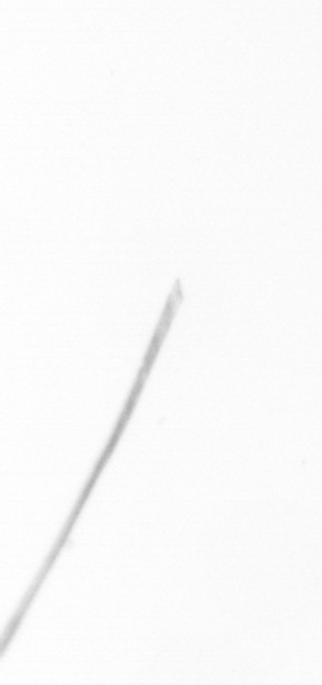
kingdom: Chromista
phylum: Ochrophyta
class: Bacillariophyceae
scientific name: Bacillariophyceae
